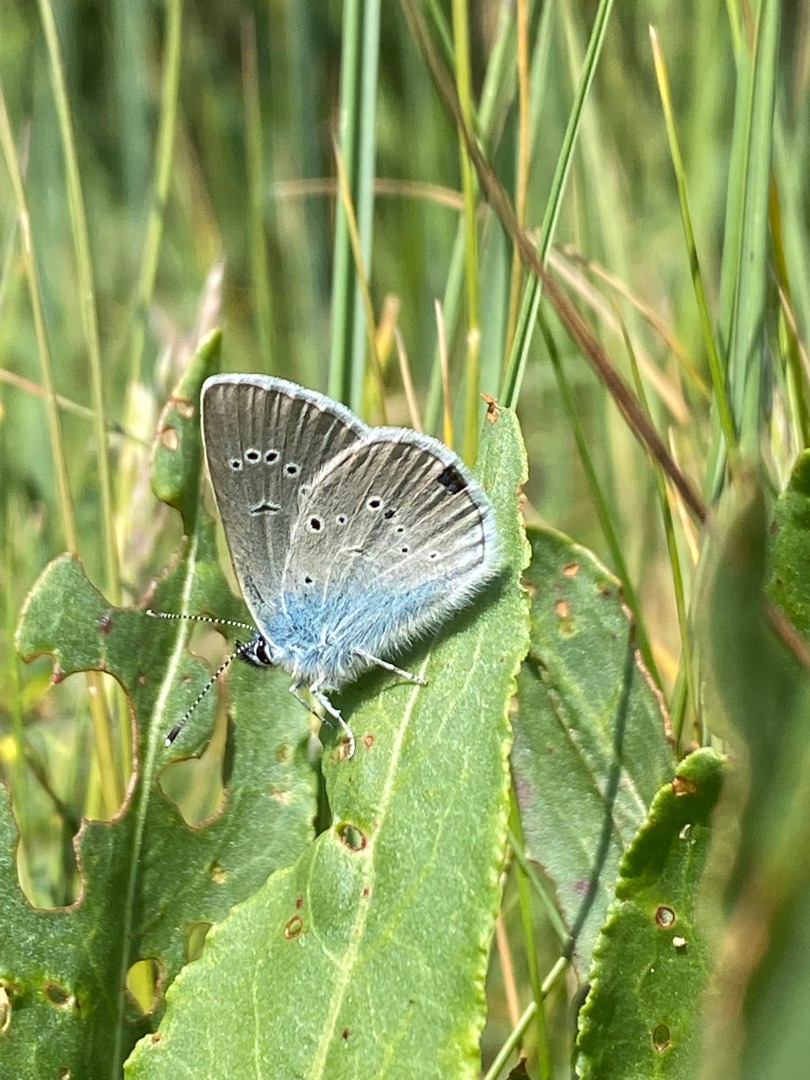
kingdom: Animalia
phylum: Arthropoda
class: Insecta
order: Lepidoptera
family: Lycaenidae
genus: Cyaniris
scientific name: Cyaniris semiargus
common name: Engblåfugl
